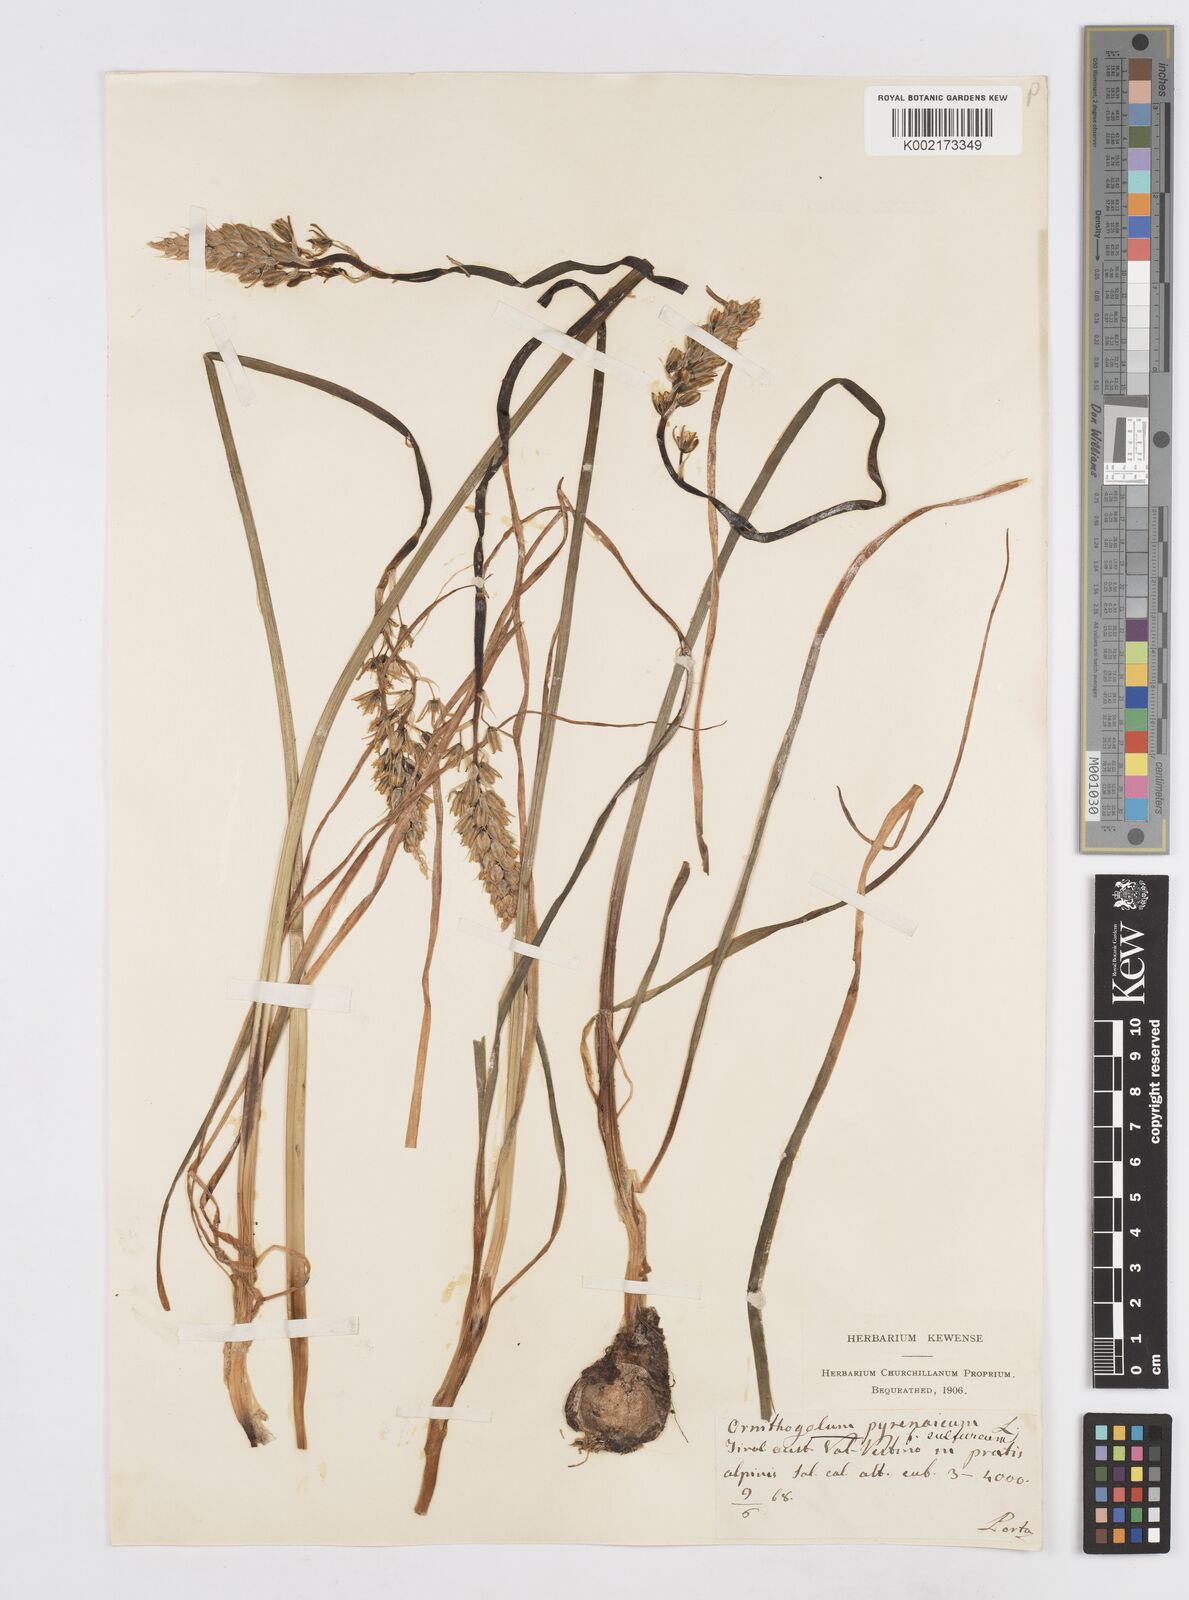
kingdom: Plantae
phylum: Tracheophyta
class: Liliopsida
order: Asparagales
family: Asparagaceae
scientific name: Asparagaceae
